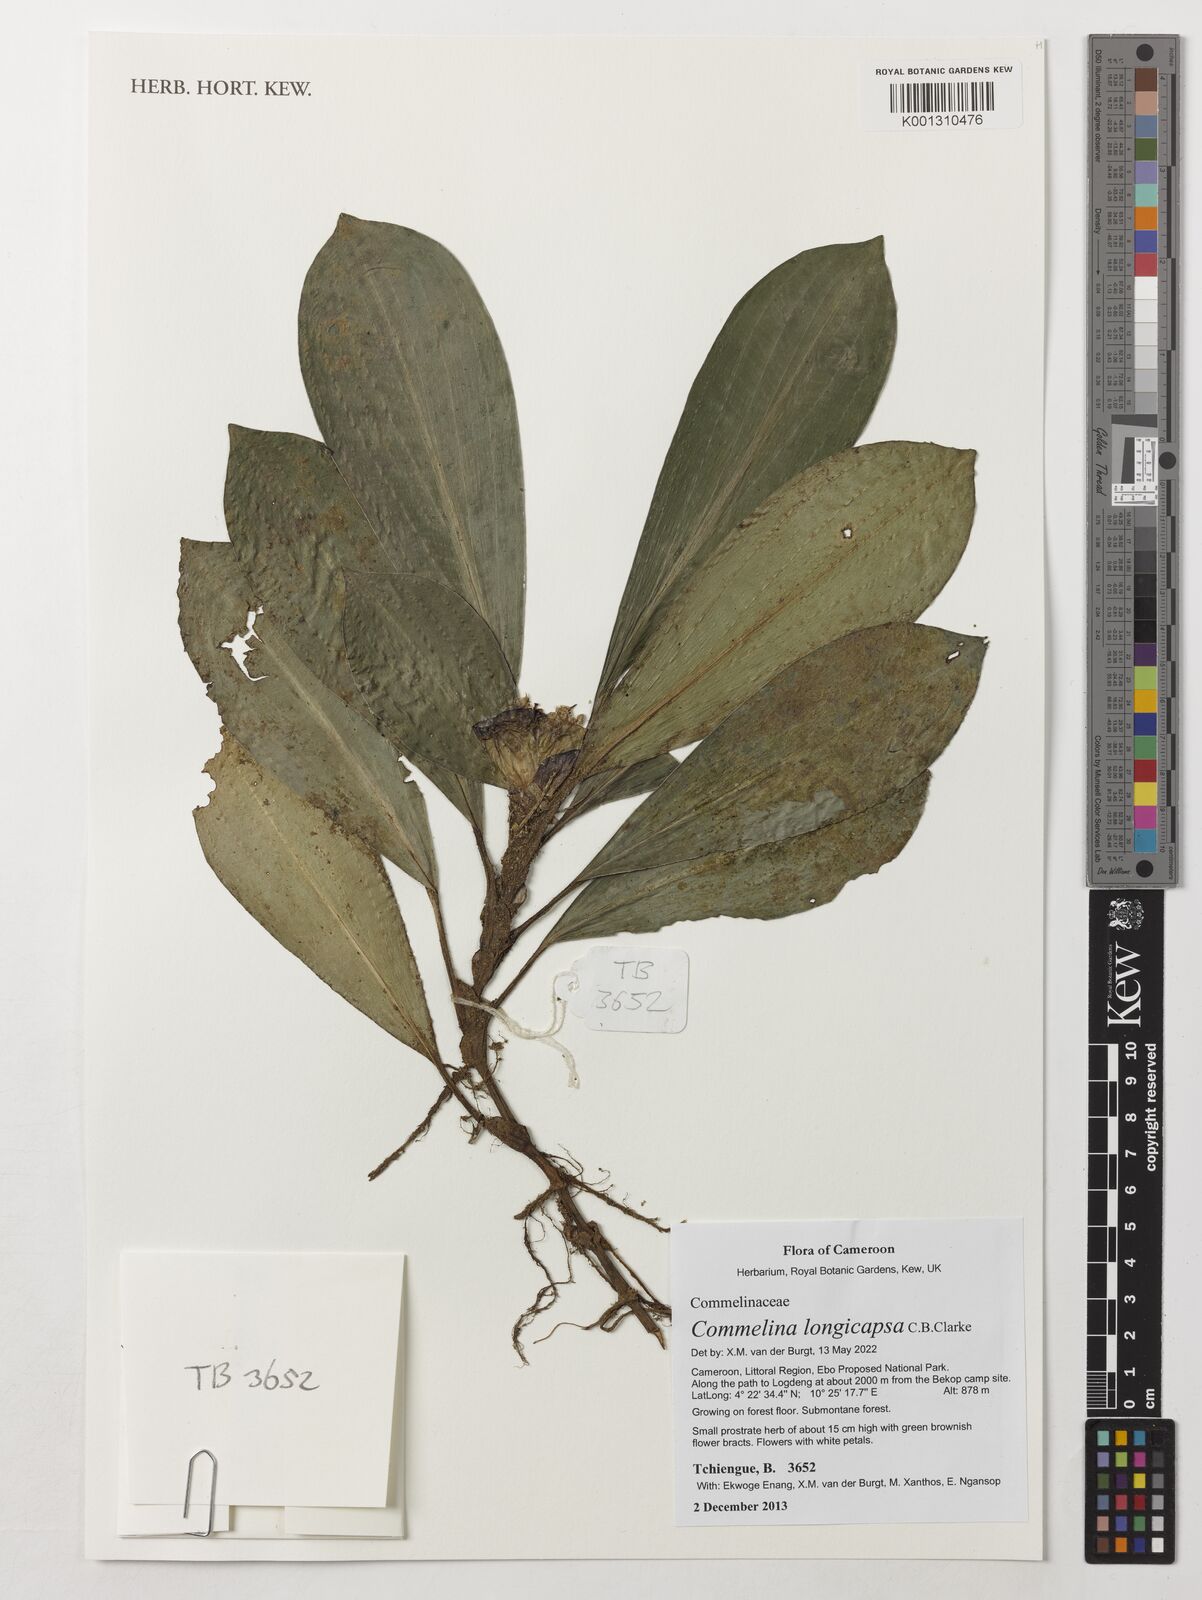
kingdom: Plantae
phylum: Tracheophyta
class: Liliopsida
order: Commelinales
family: Commelinaceae
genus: Commelina
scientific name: Commelina longicapsa
